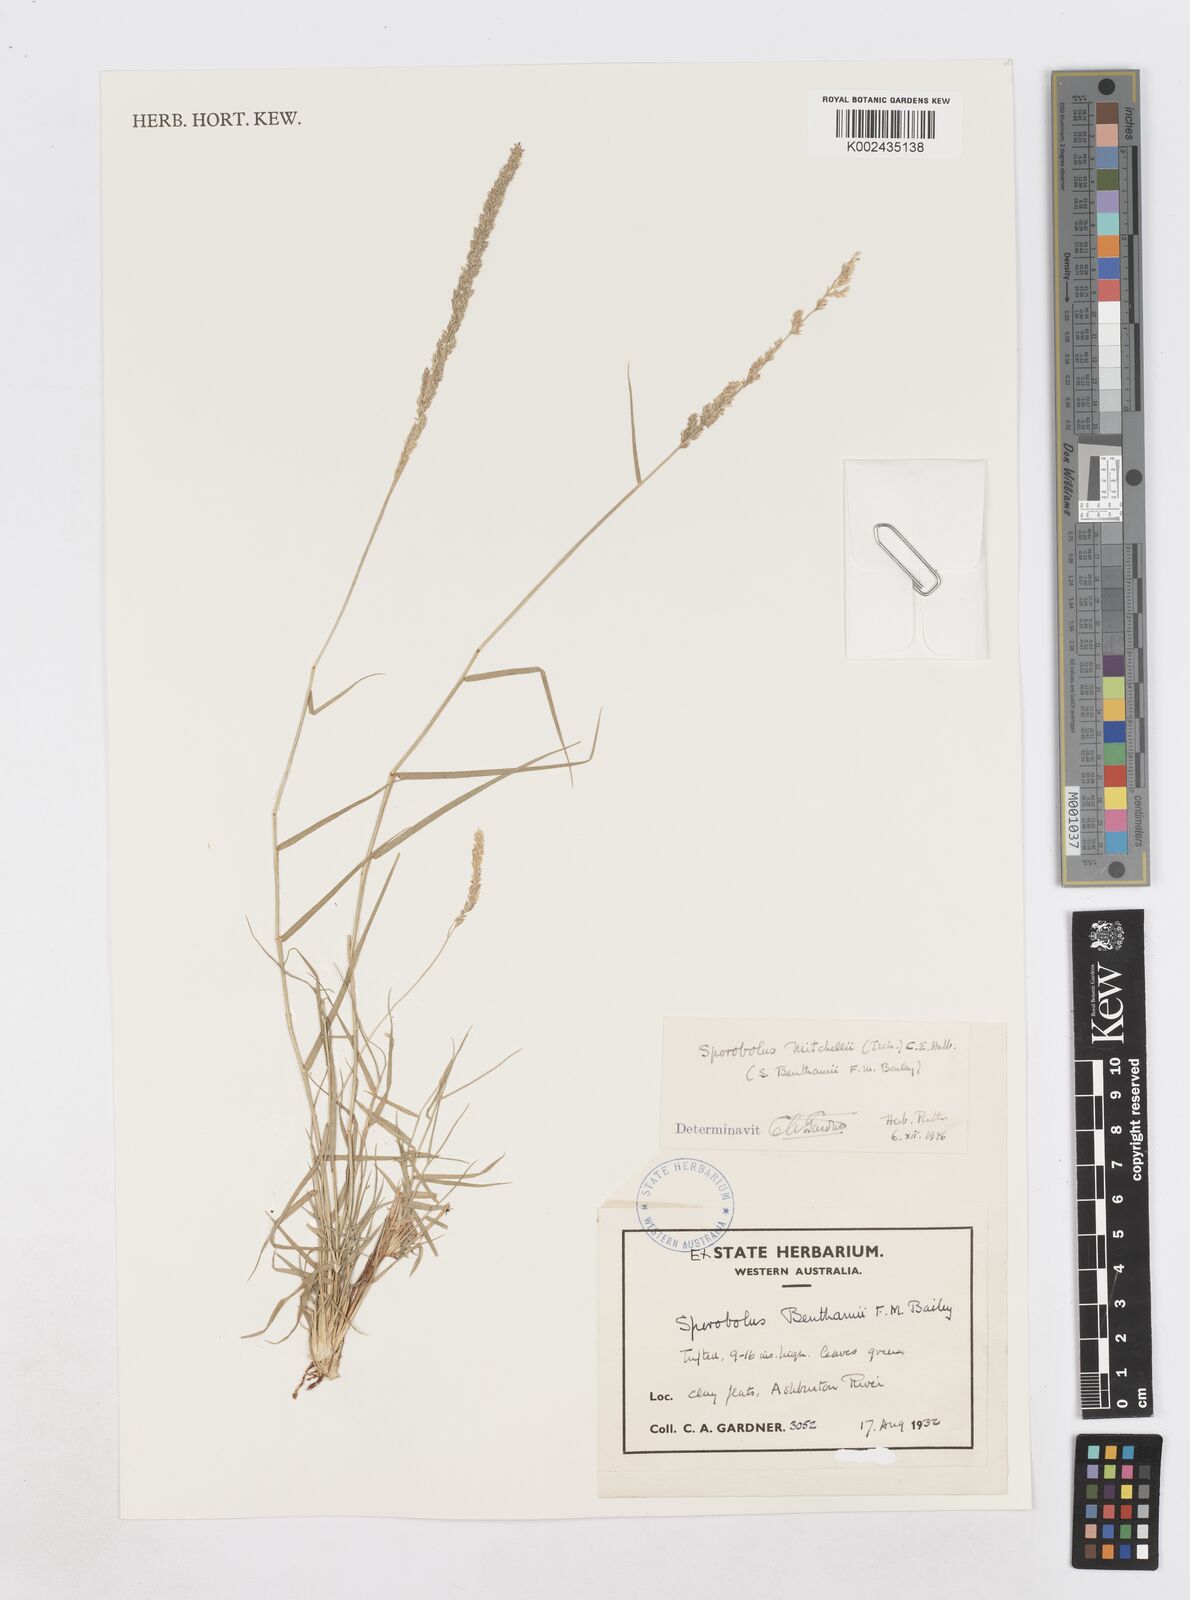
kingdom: Plantae
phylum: Tracheophyta
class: Liliopsida
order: Poales
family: Poaceae
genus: Sporobolus
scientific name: Sporobolus mitchellii
